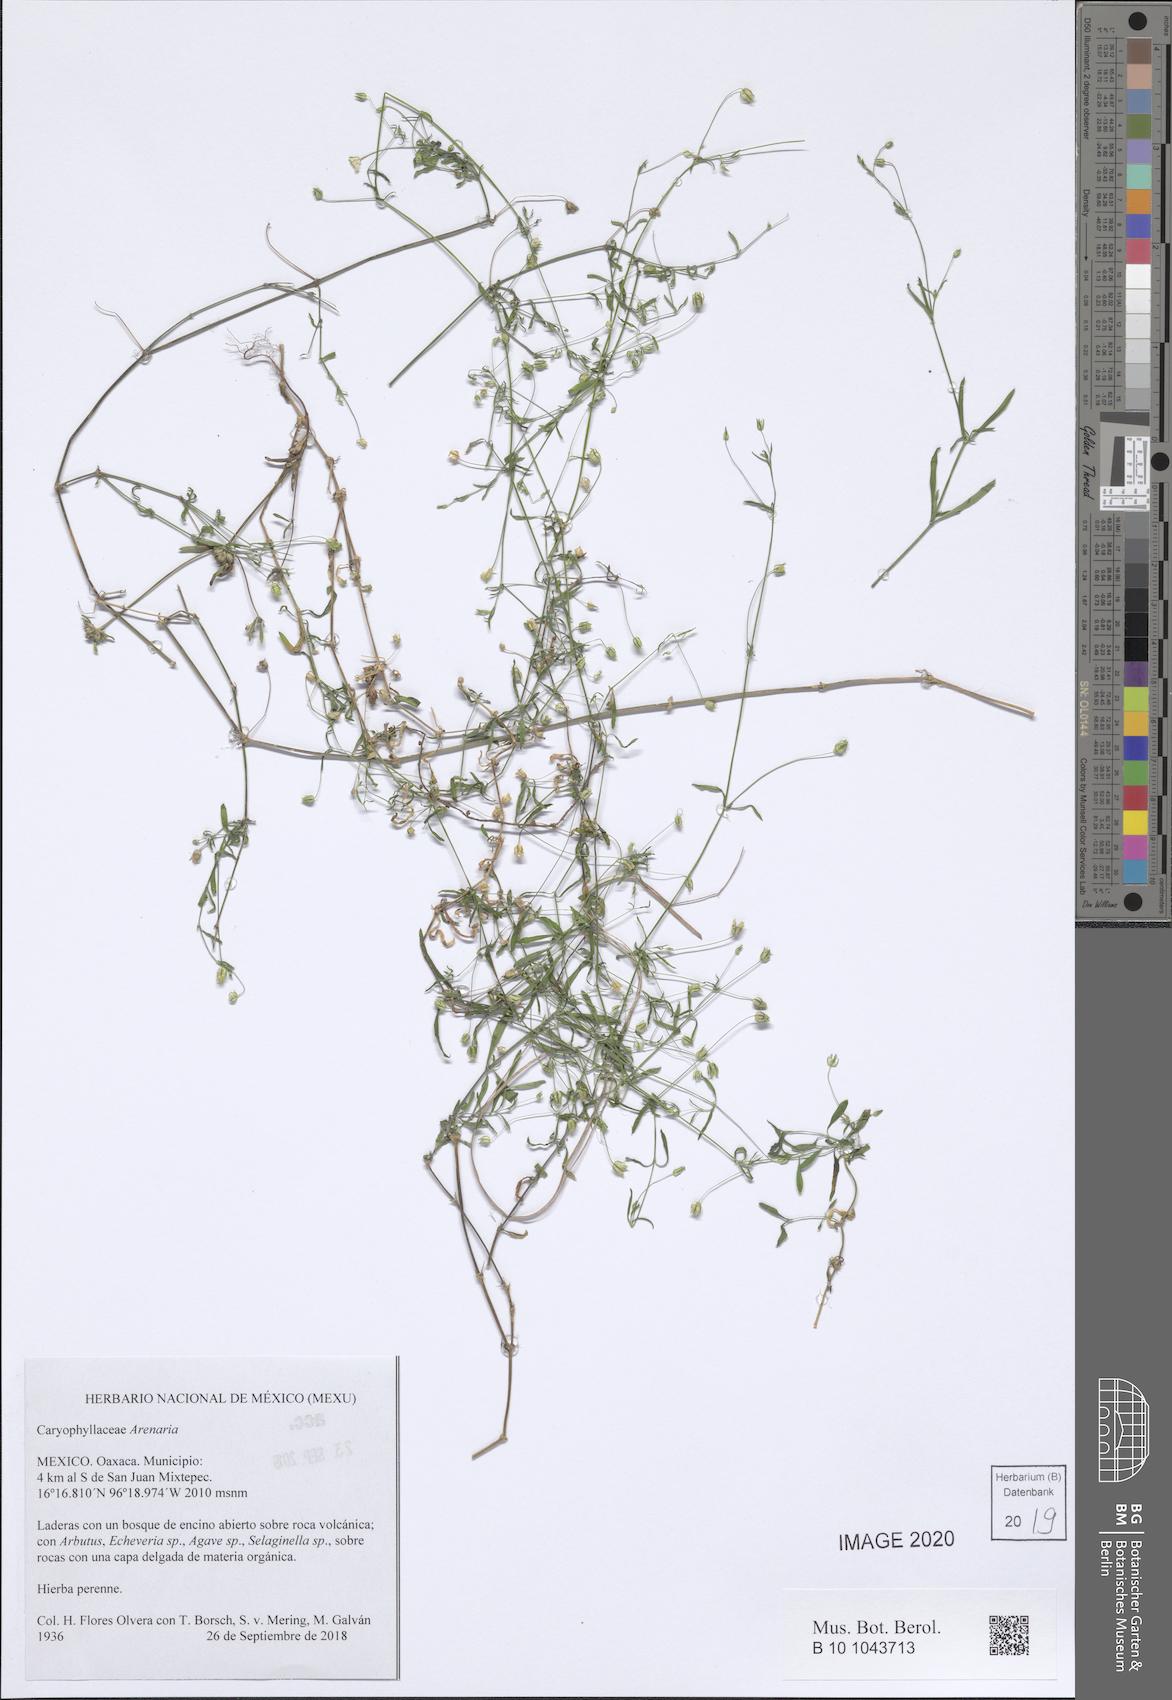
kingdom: Plantae
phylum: Tracheophyta
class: Magnoliopsida
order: Caryophyllales
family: Caryophyllaceae
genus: Arenaria
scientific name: Arenaria
